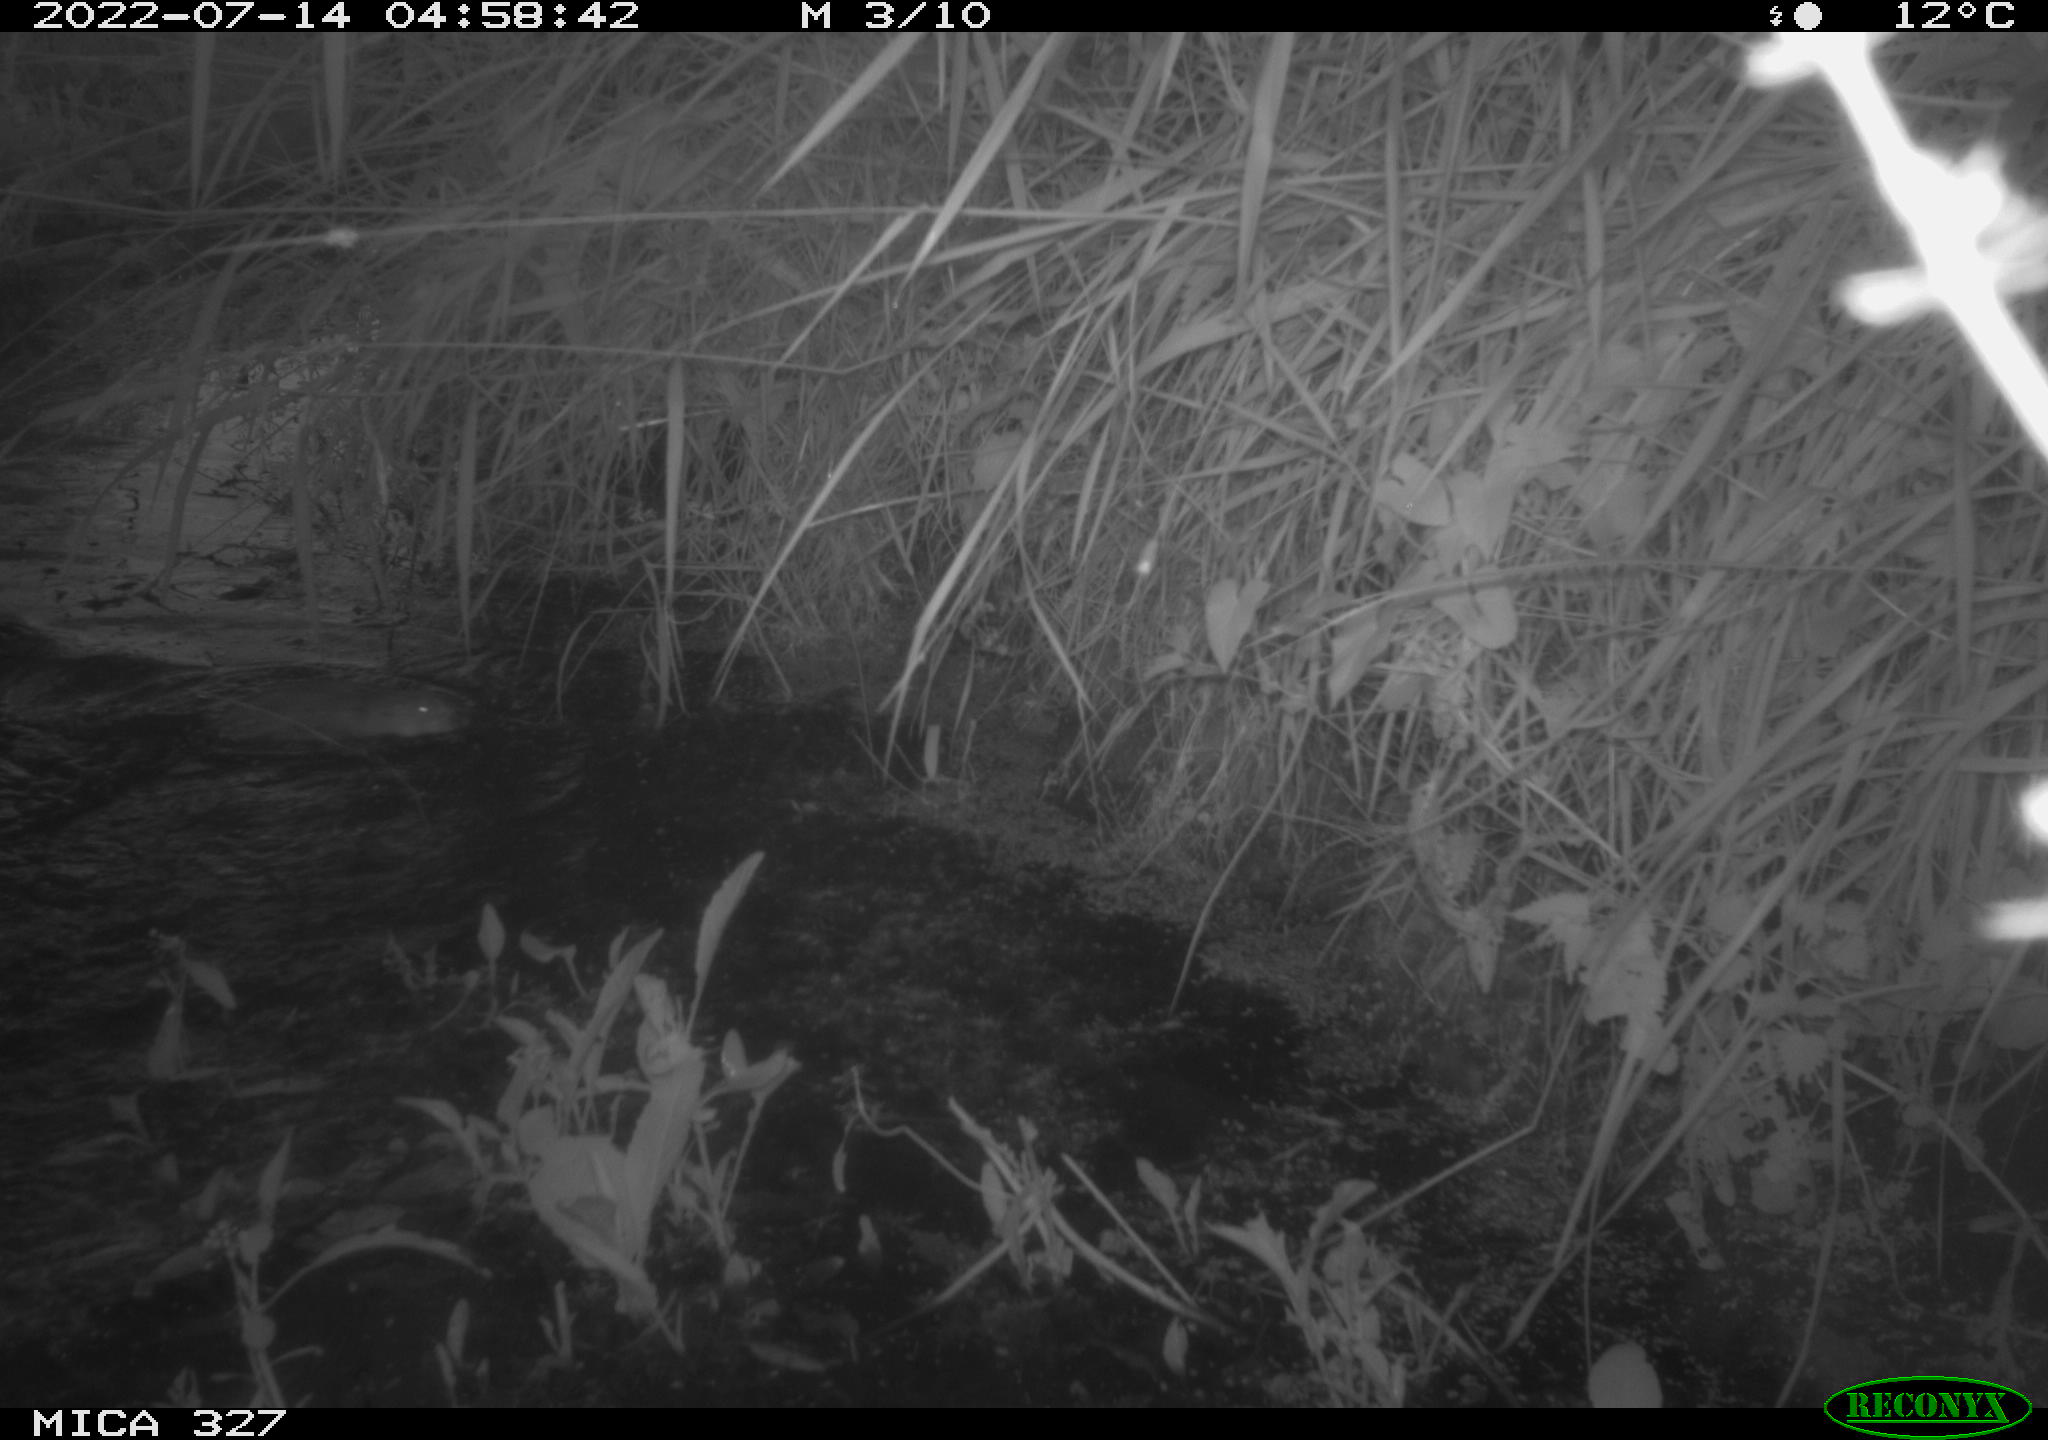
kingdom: Animalia
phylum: Chordata
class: Mammalia
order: Rodentia
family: Cricetidae
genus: Ondatra
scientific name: Ondatra zibethicus
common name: Muskrat
